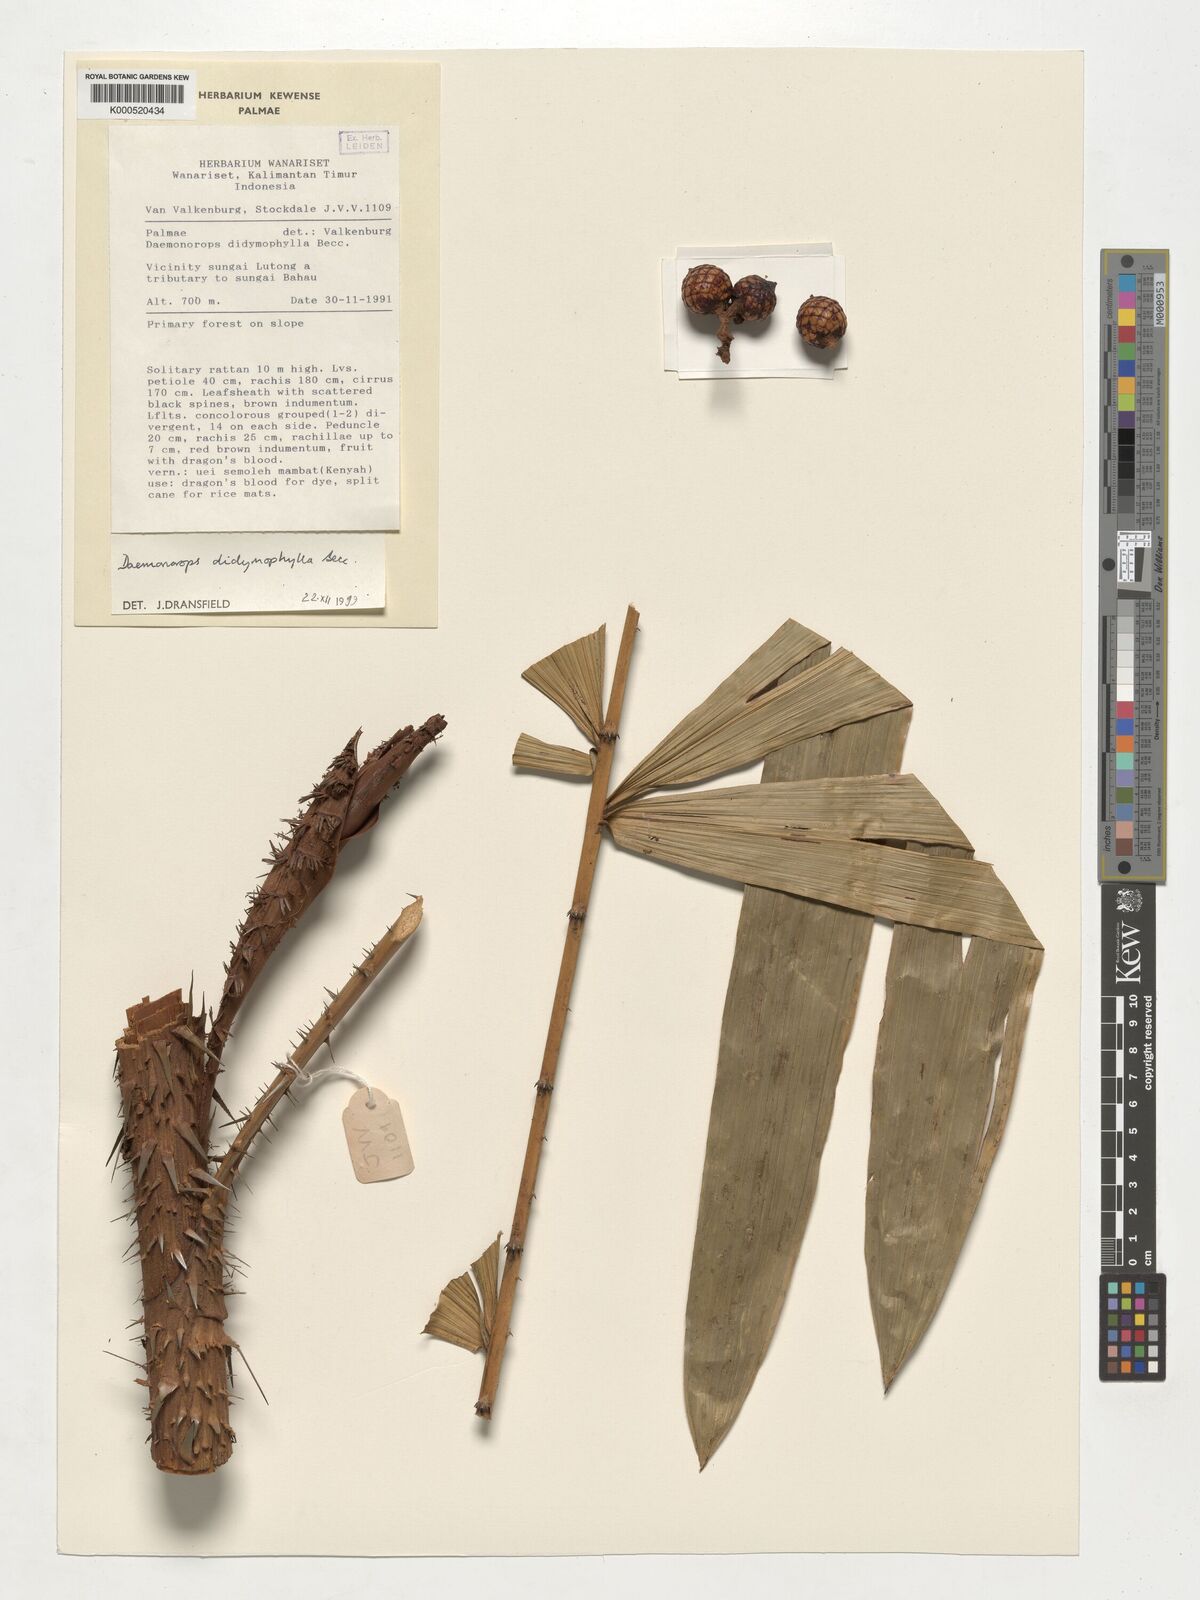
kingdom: Plantae
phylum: Tracheophyta
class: Liliopsida
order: Arecales
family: Arecaceae
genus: Calamus
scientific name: Calamus gracilipes
